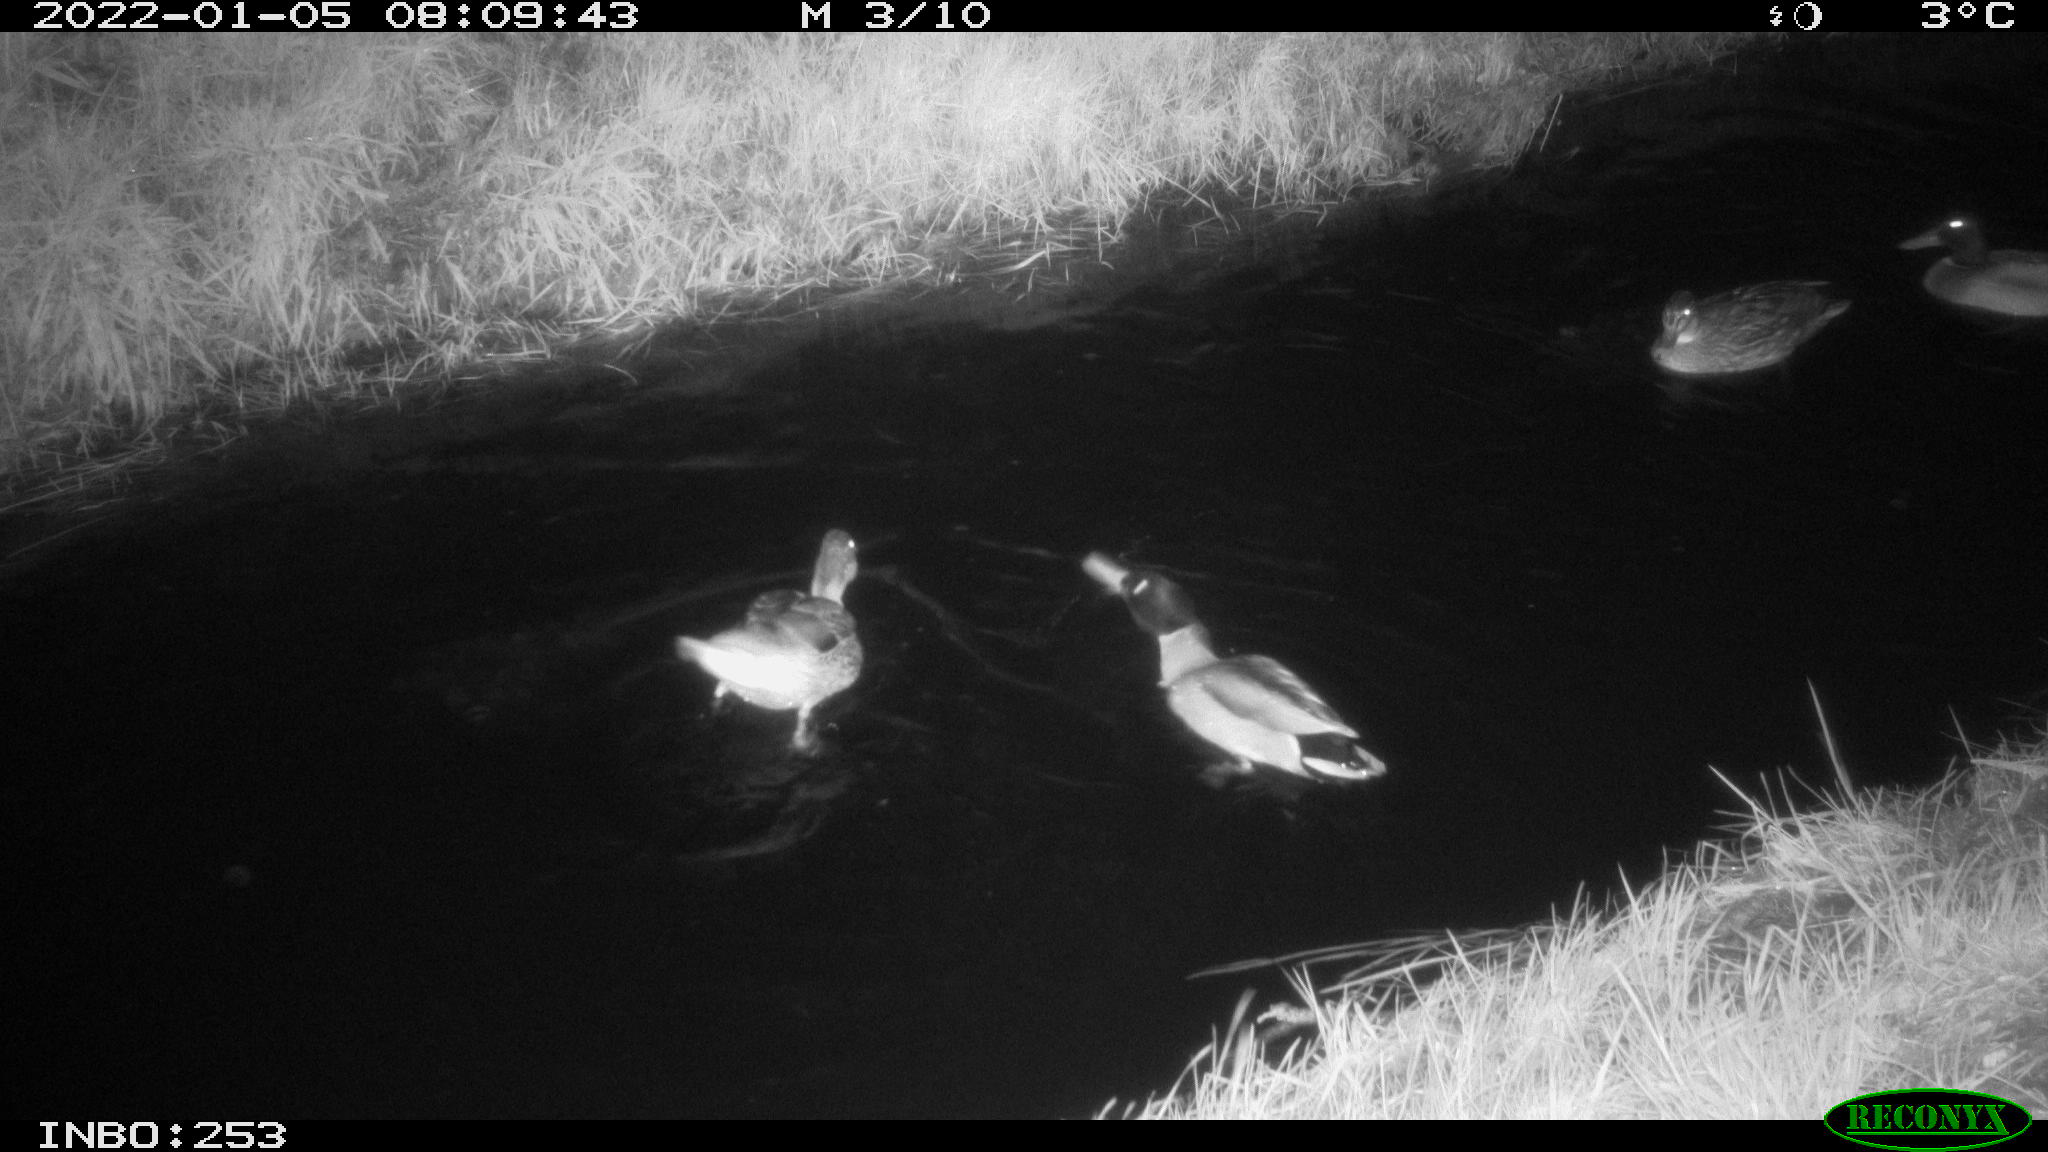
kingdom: Animalia
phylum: Chordata
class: Aves
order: Anseriformes
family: Anatidae
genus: Anas
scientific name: Anas
